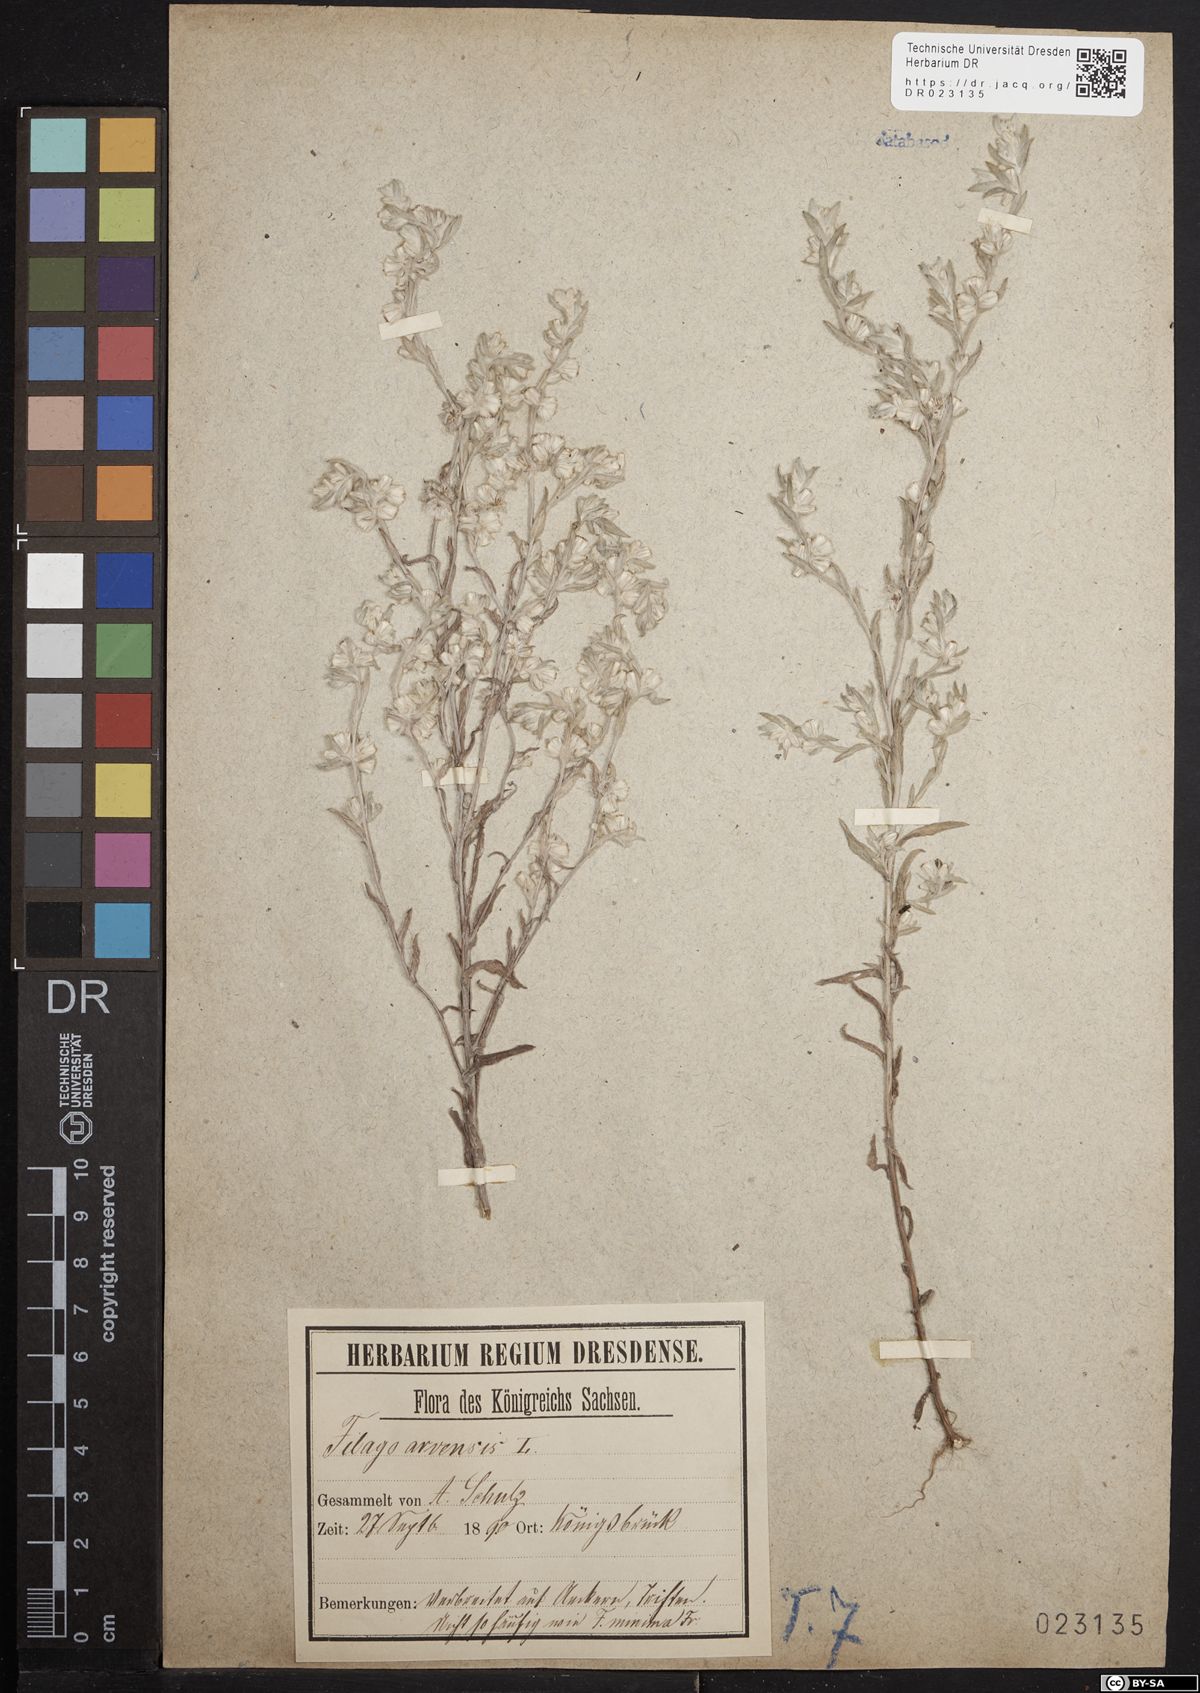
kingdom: Plantae
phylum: Tracheophyta
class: Magnoliopsida
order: Asterales
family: Asteraceae
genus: Filago
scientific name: Filago arvensis
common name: Field cudweed
